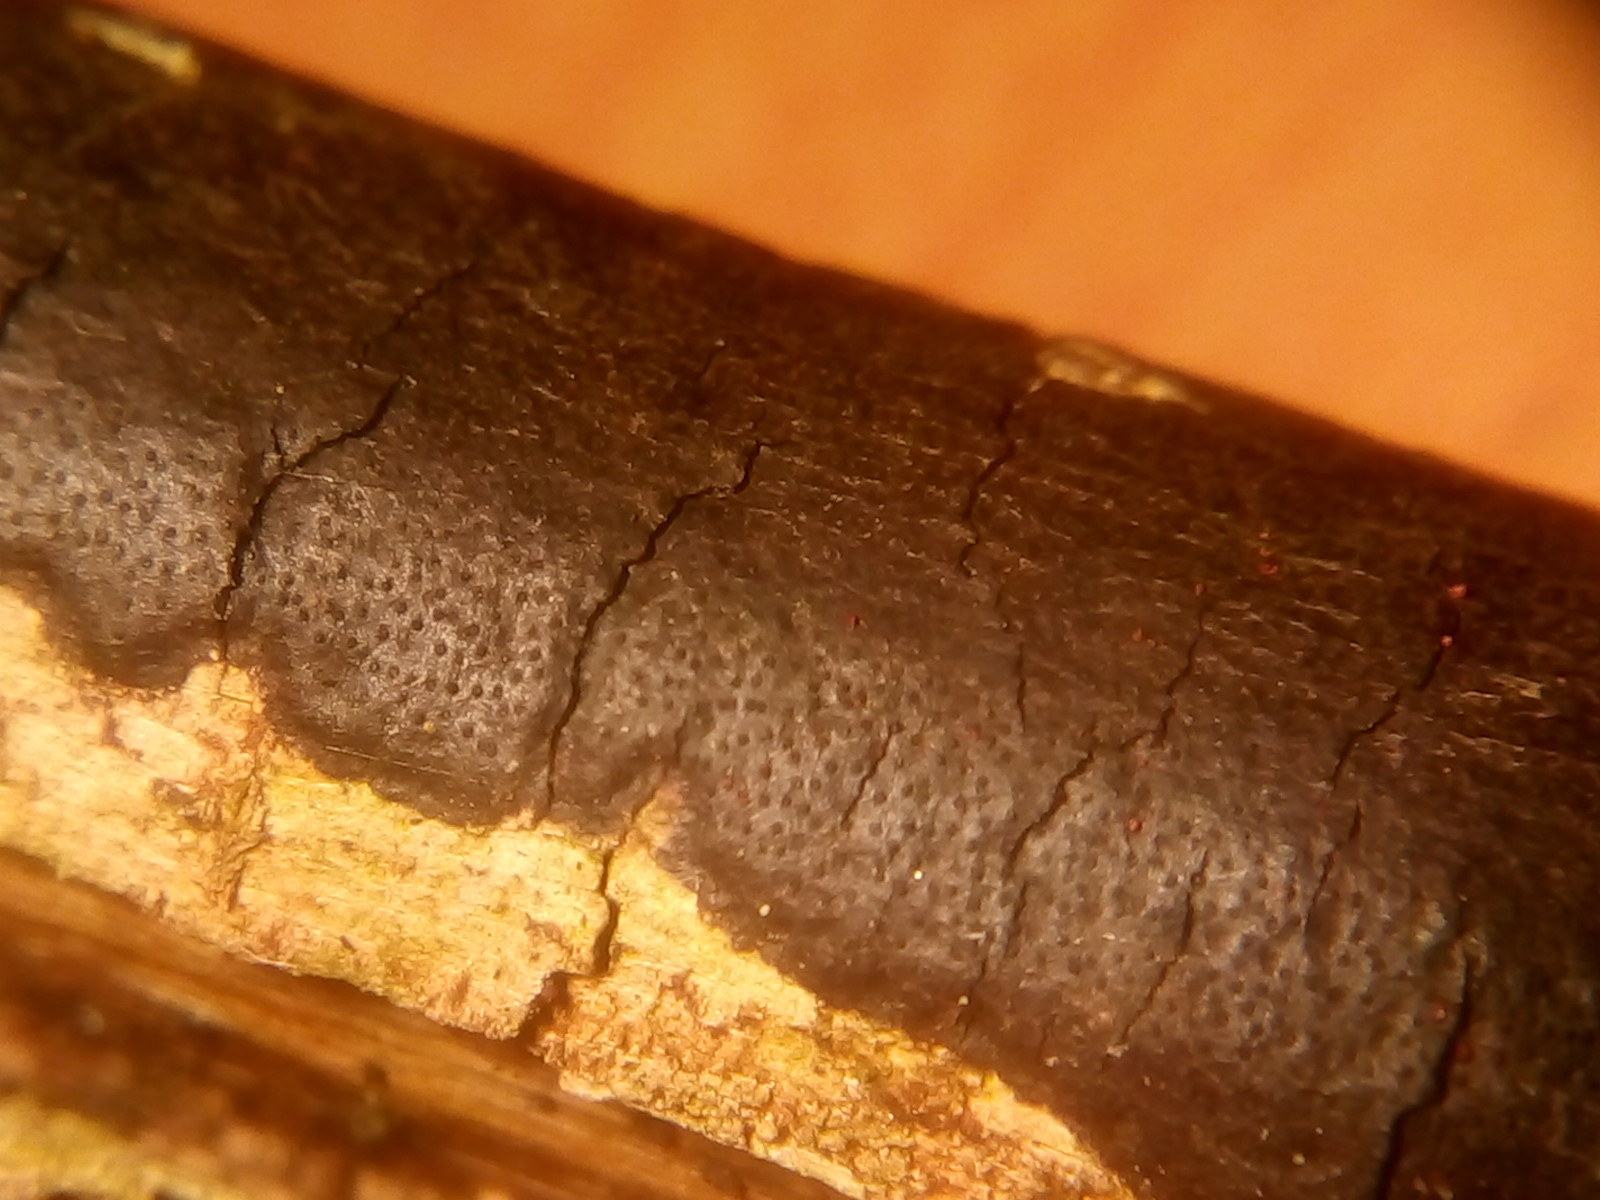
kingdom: Fungi
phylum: Ascomycota
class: Sordariomycetes
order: Xylariales
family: Diatrypaceae
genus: Diatrype
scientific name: Diatrype decorticata
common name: barksprænger-kulskorpe
